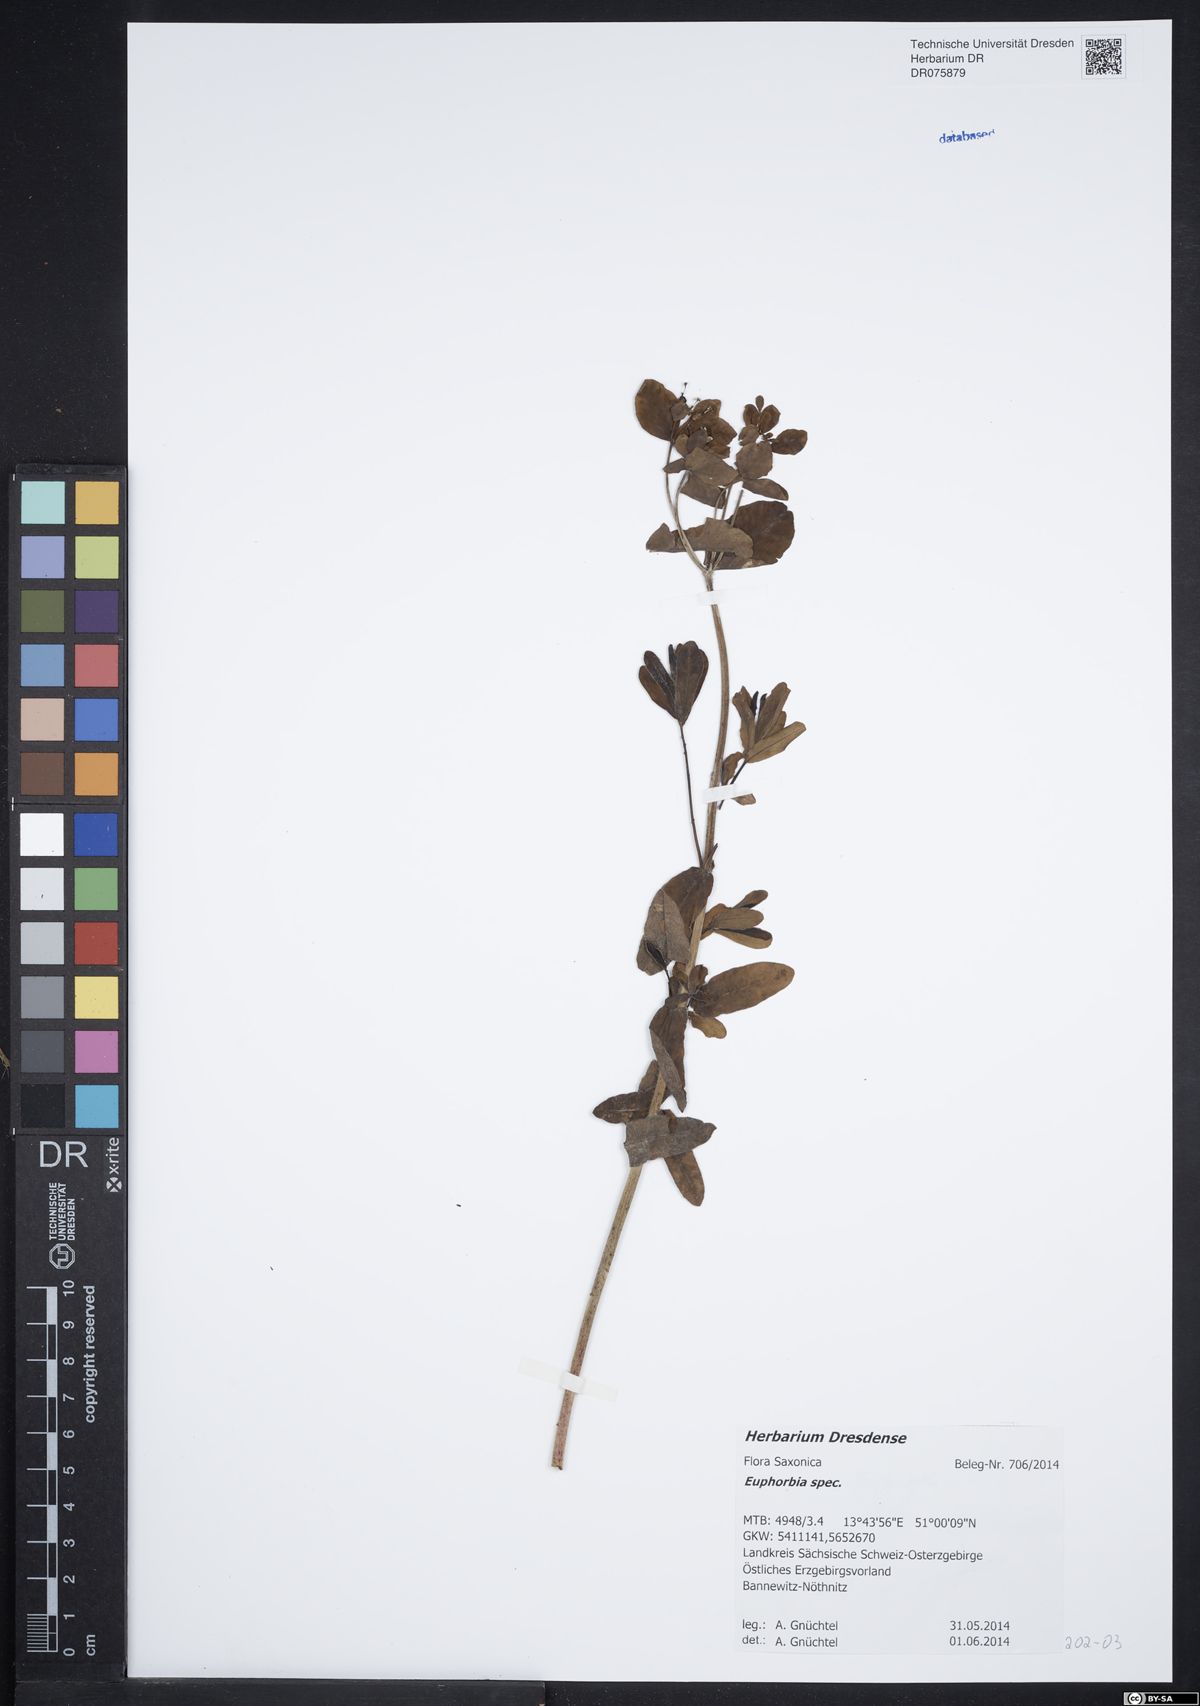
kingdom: Plantae
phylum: Tracheophyta
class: Magnoliopsida
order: Malpighiales
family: Euphorbiaceae
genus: Euphorbia
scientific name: Euphorbia
